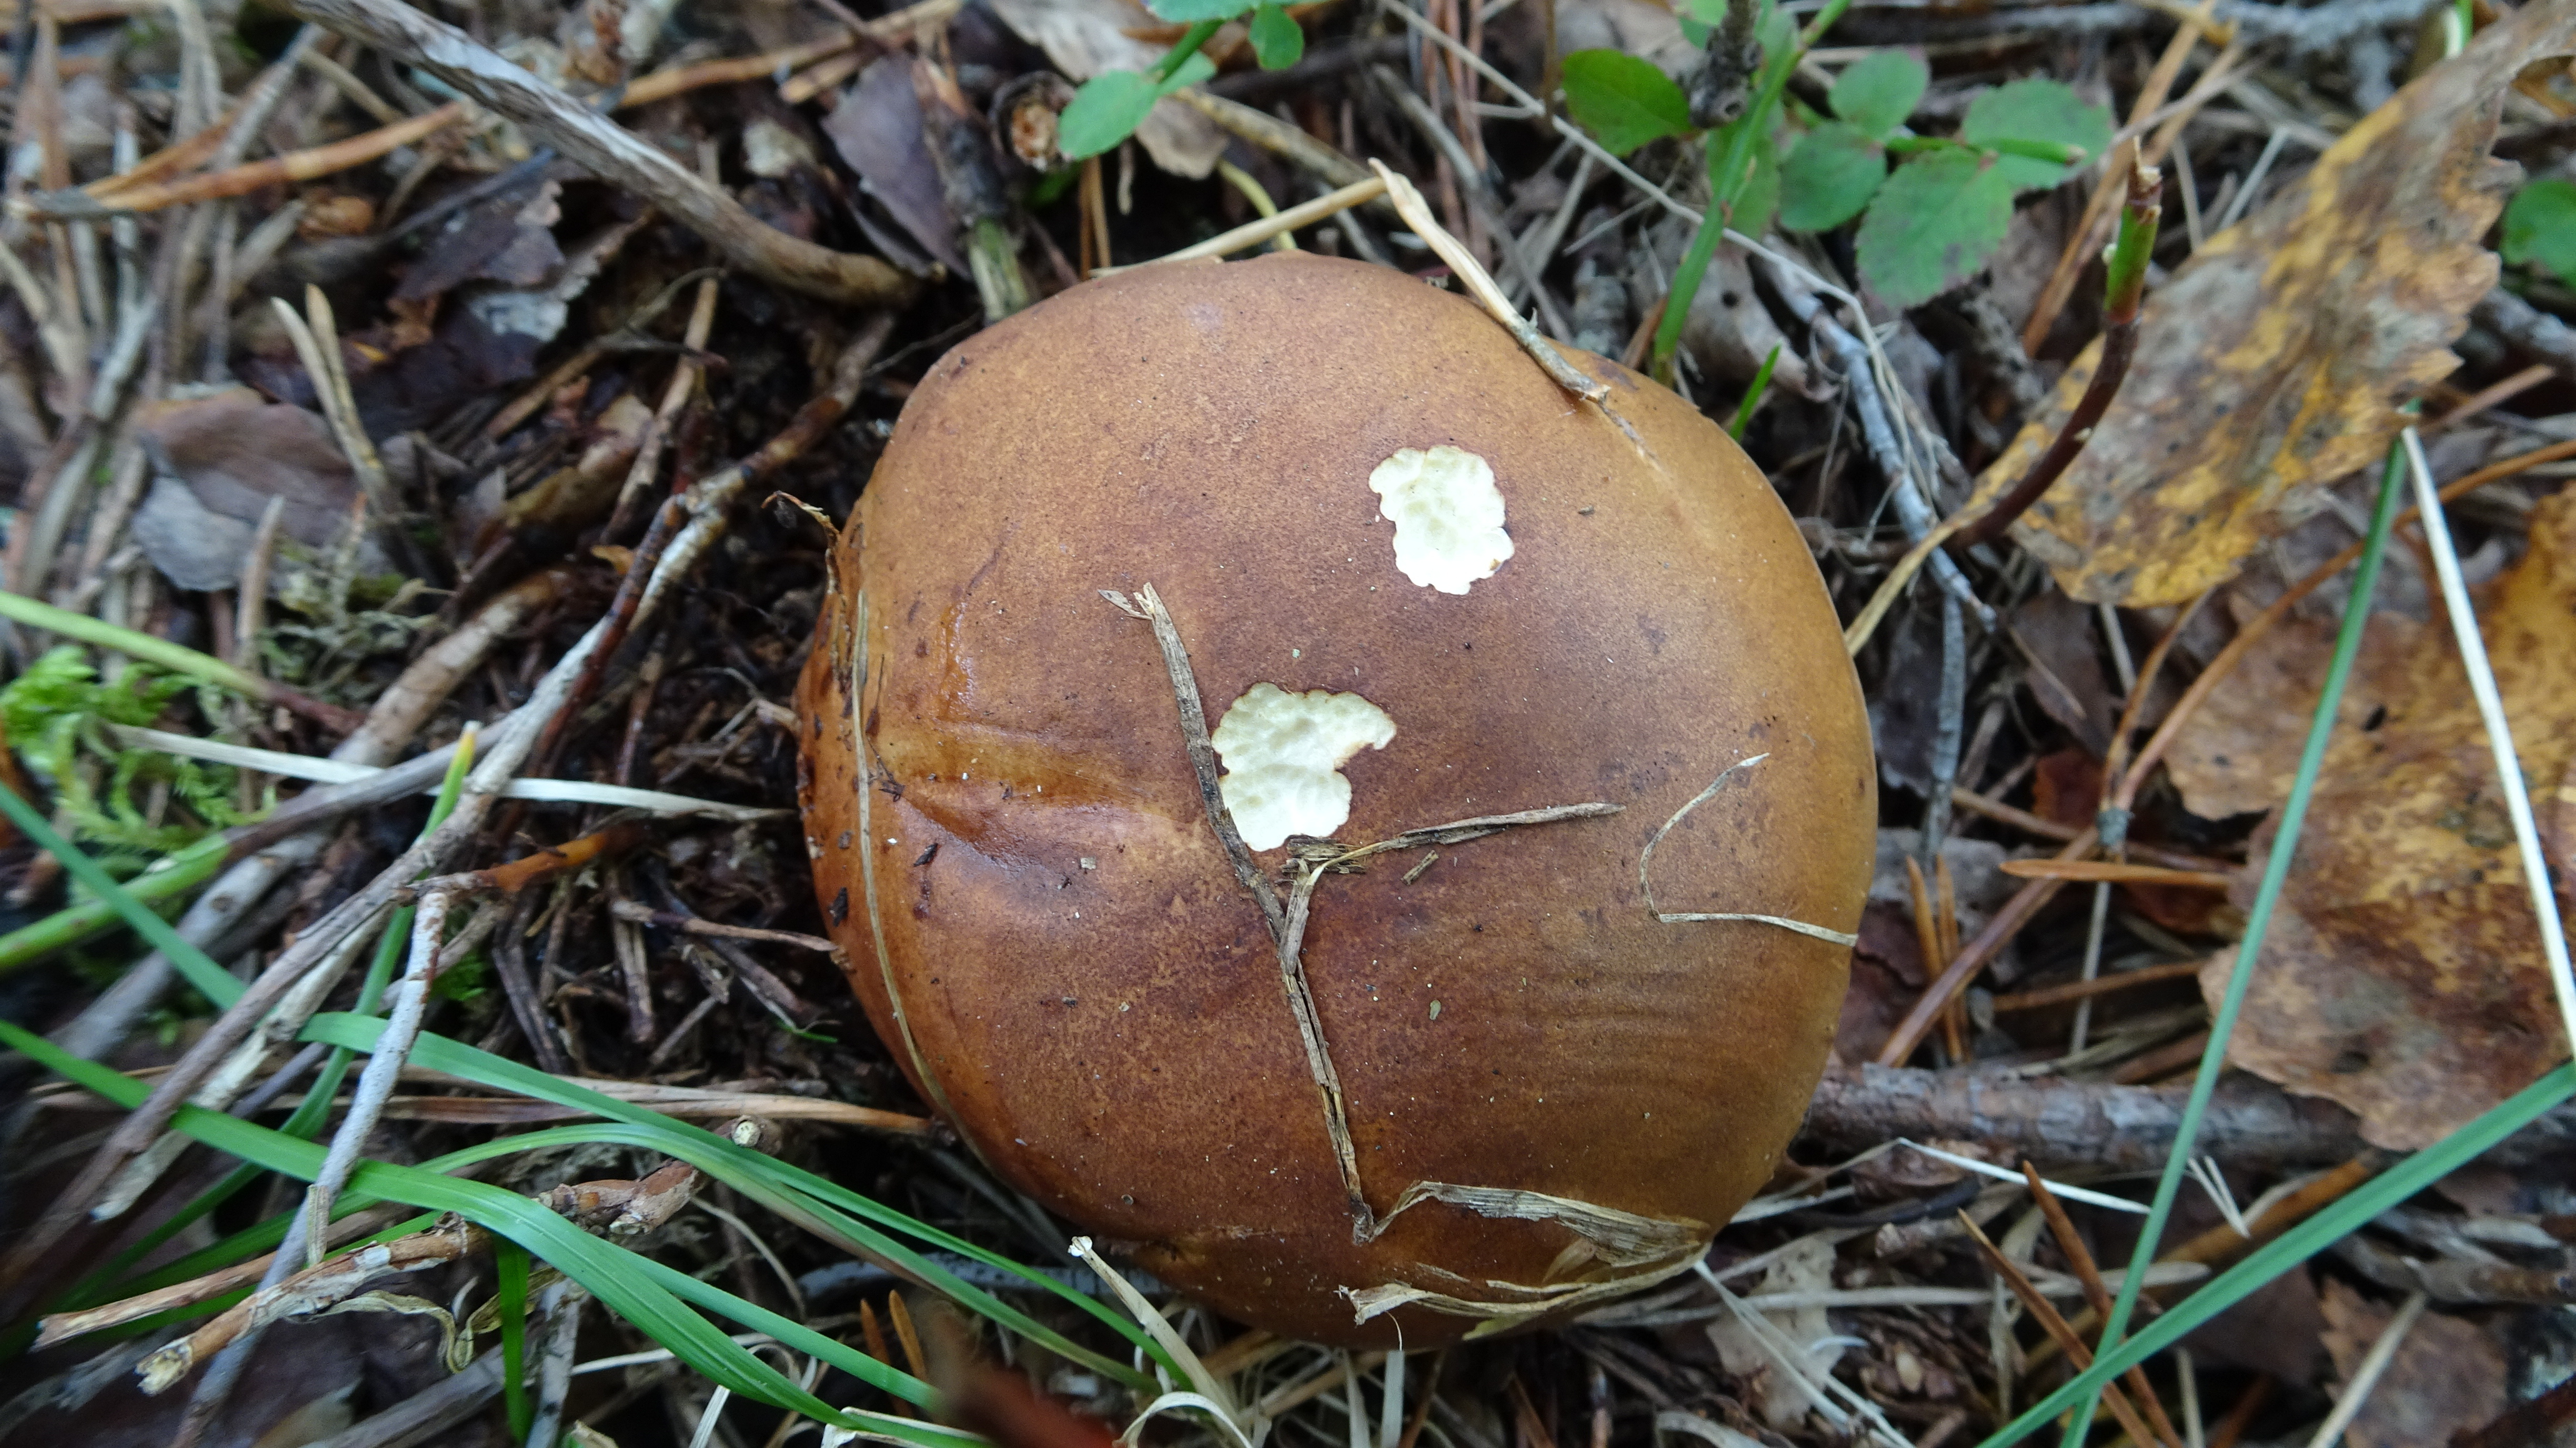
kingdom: Fungi
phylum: Basidiomycota
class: Agaricomycetes
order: Boletales
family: Boletaceae
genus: Imleria
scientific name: Imleria badia
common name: Bay bolete
